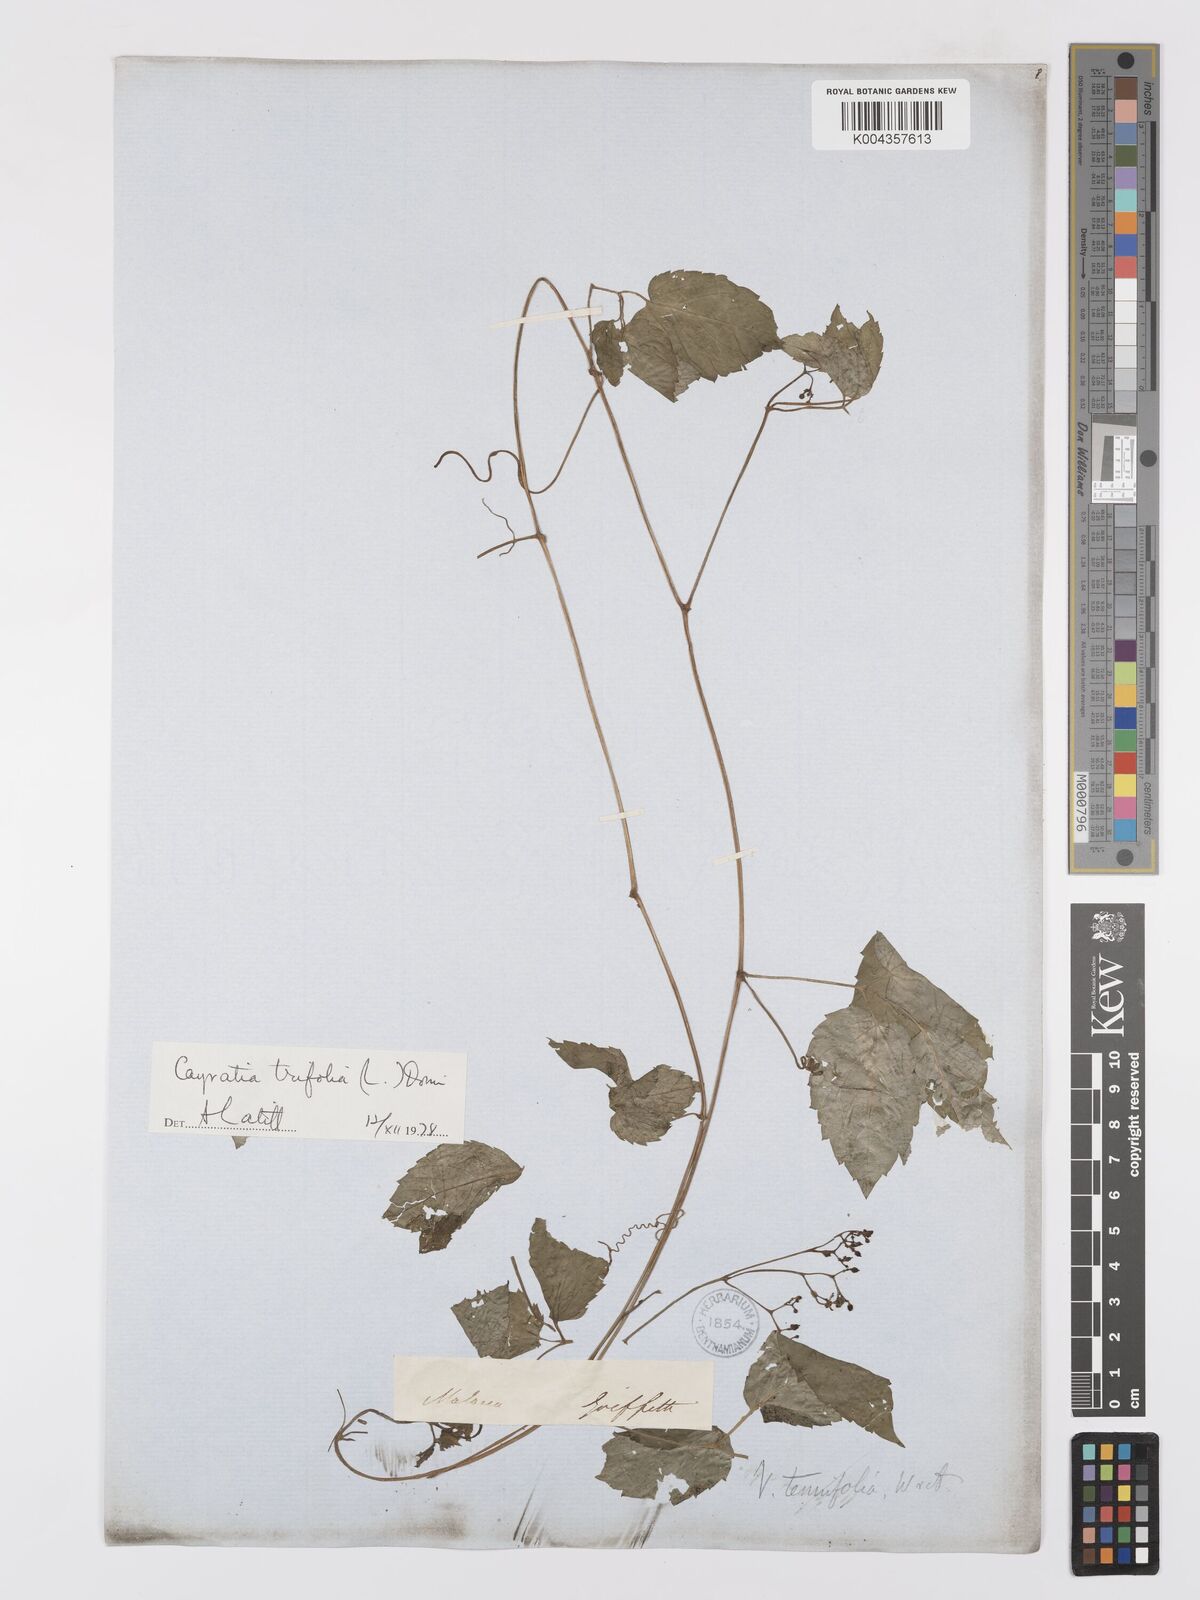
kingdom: Plantae
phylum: Tracheophyta
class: Magnoliopsida
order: Vitales
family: Vitaceae
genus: Causonis
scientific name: Causonis trifolia
